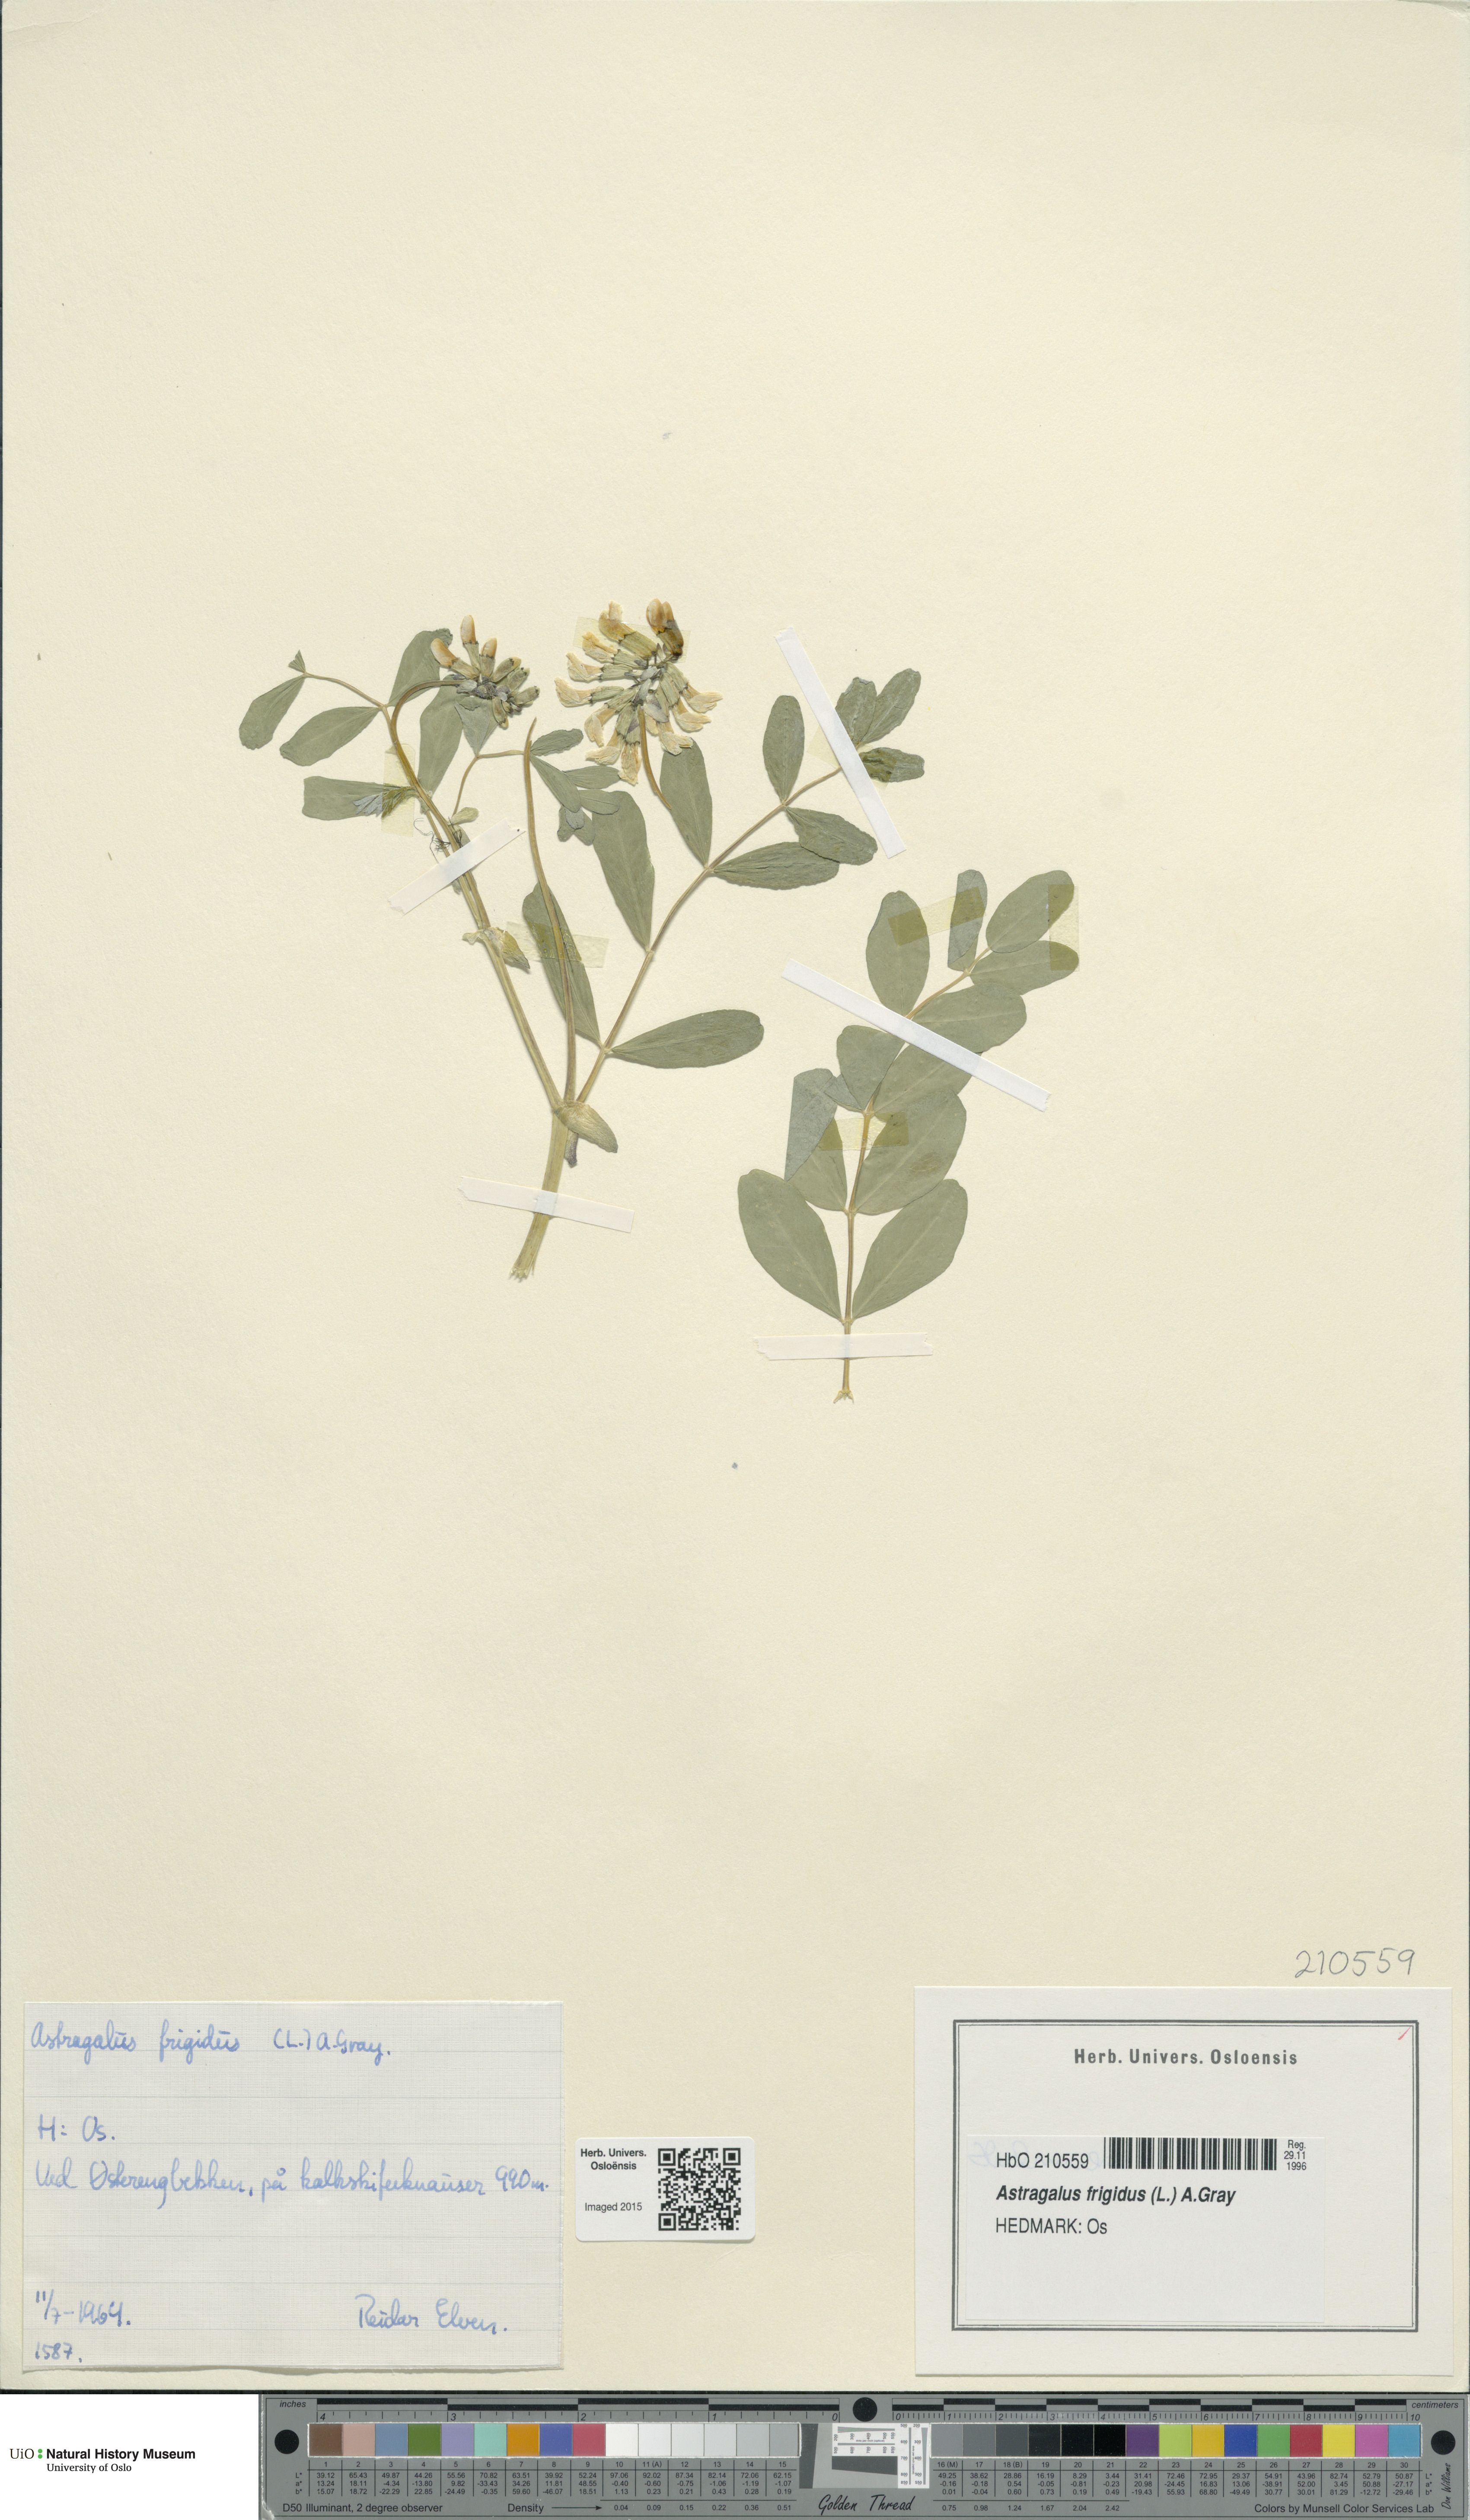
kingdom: Plantae
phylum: Tracheophyta
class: Magnoliopsida
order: Fabales
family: Fabaceae
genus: Astragalus
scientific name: Astragalus frigidus
